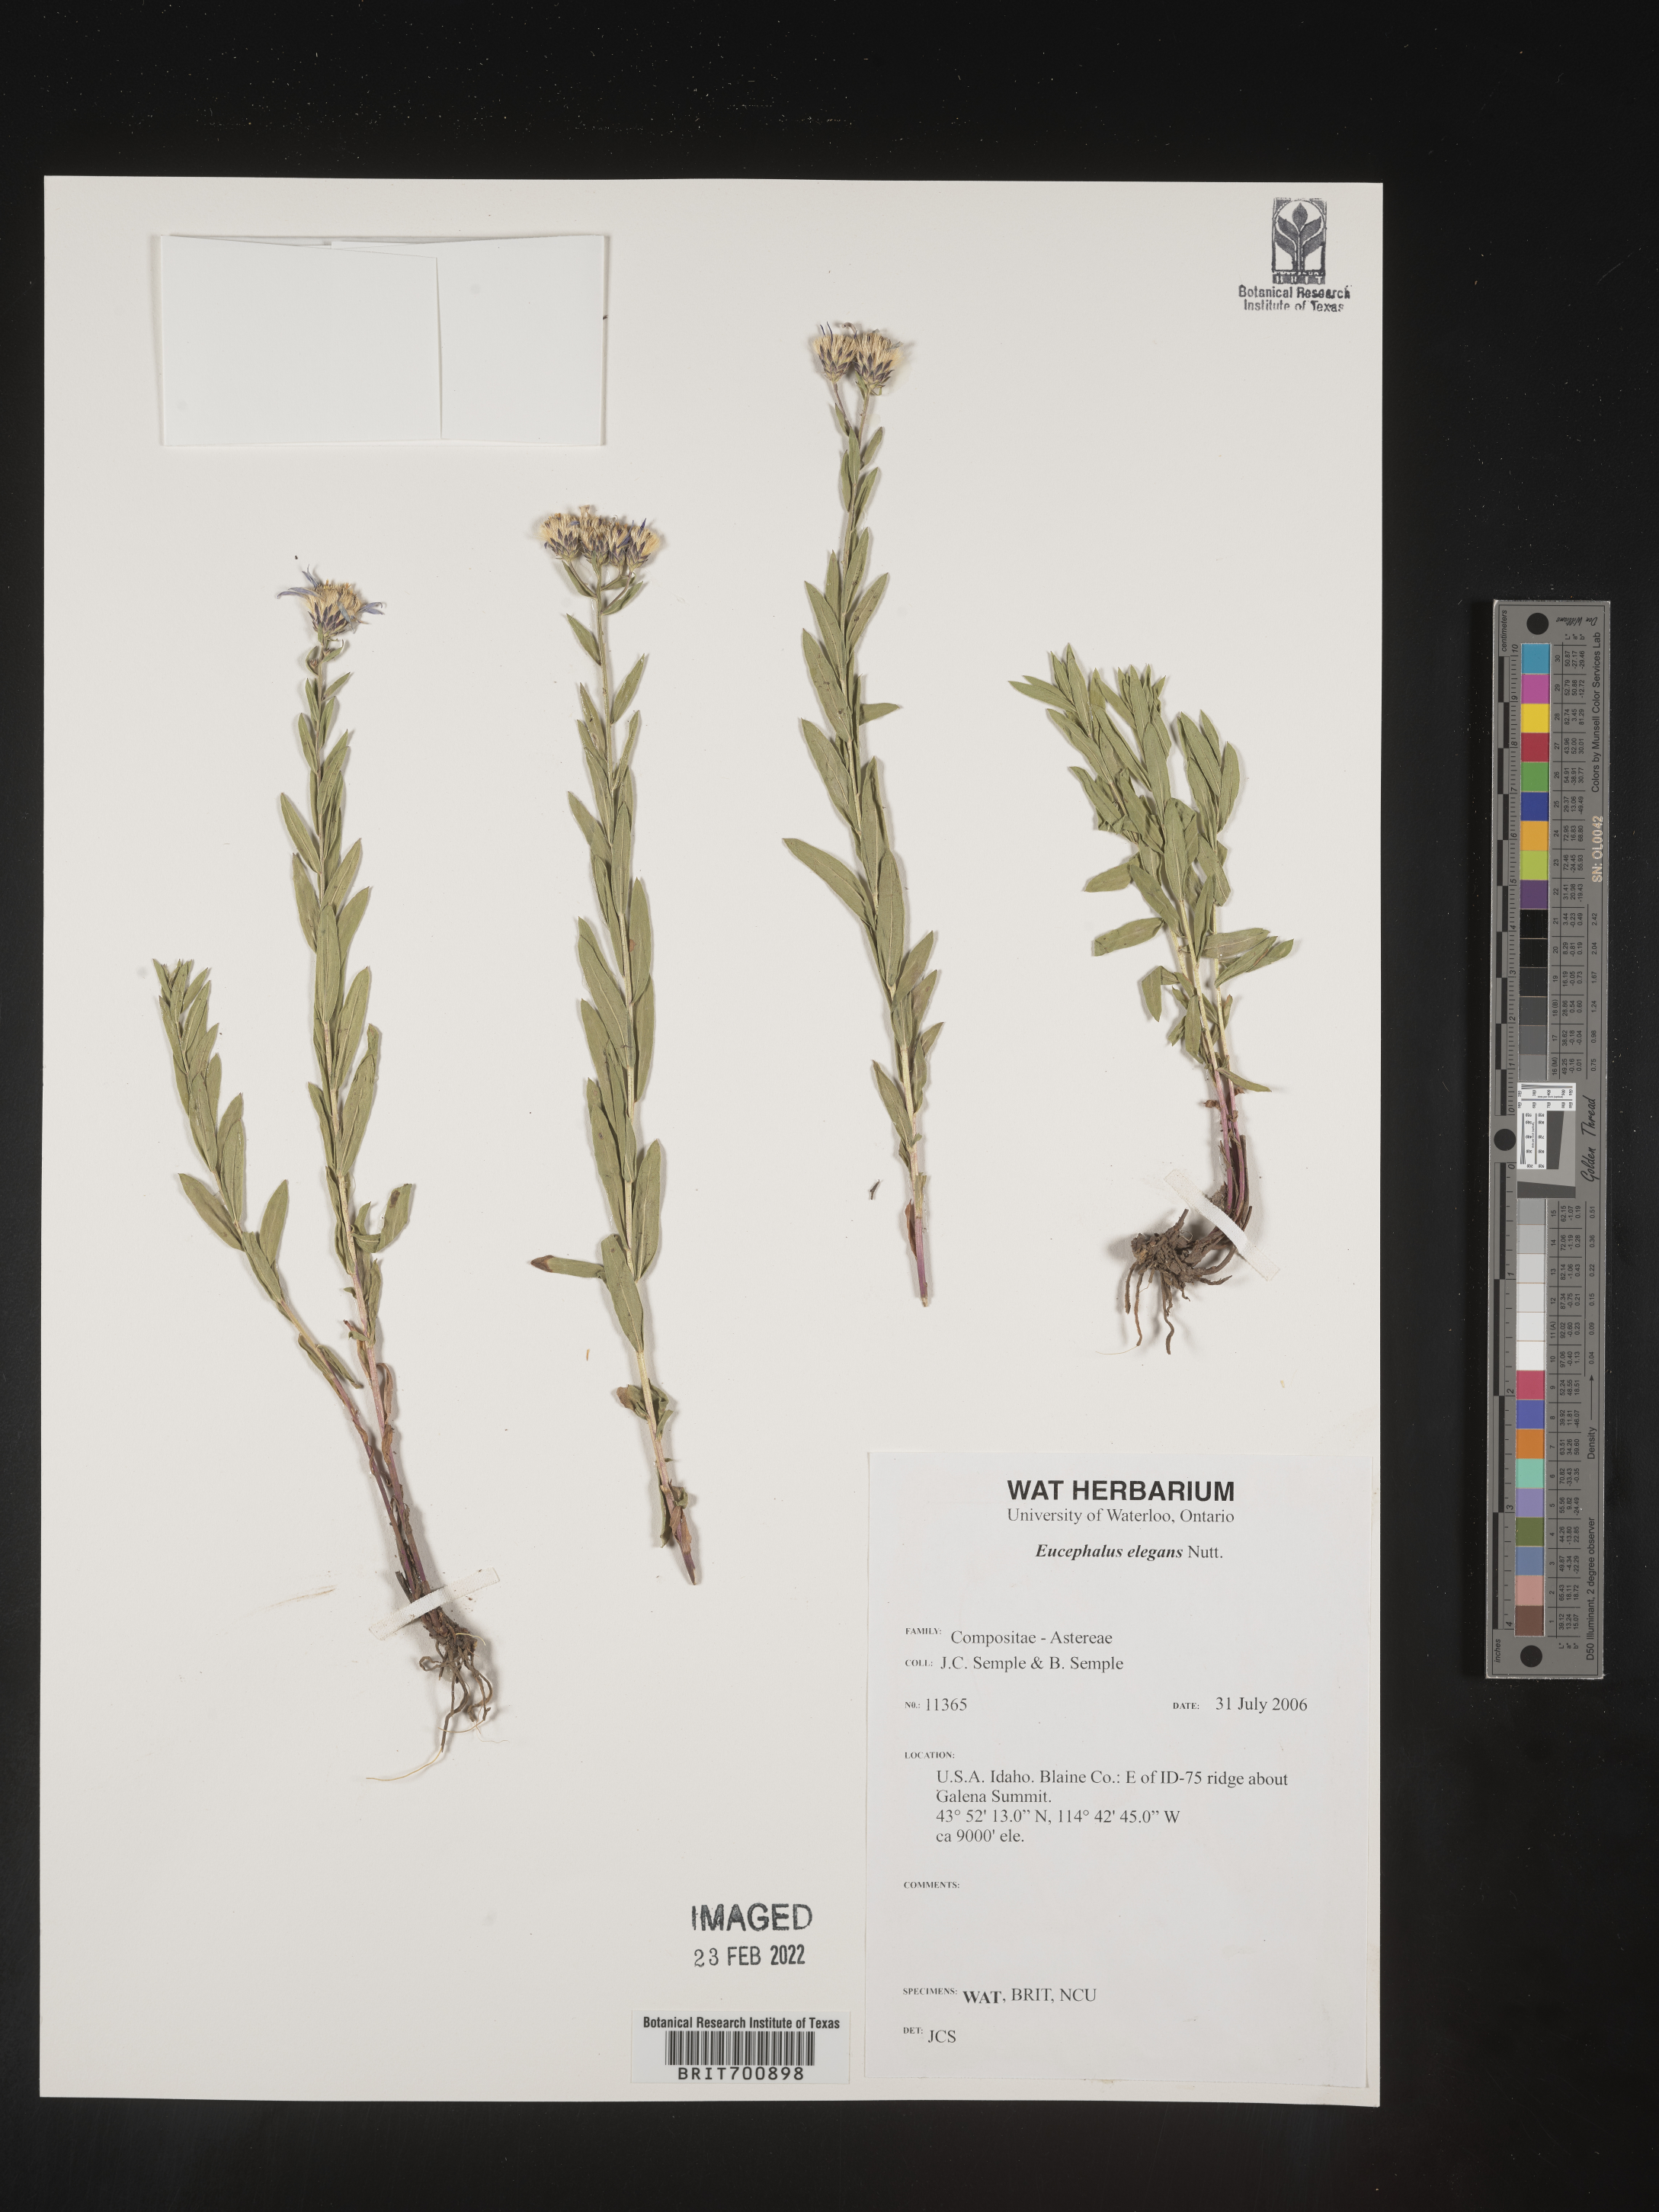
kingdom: Plantae
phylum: Tracheophyta
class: Magnoliopsida
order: Asterales
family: Asteraceae
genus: Doellingeria
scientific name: Doellingeria elegans
